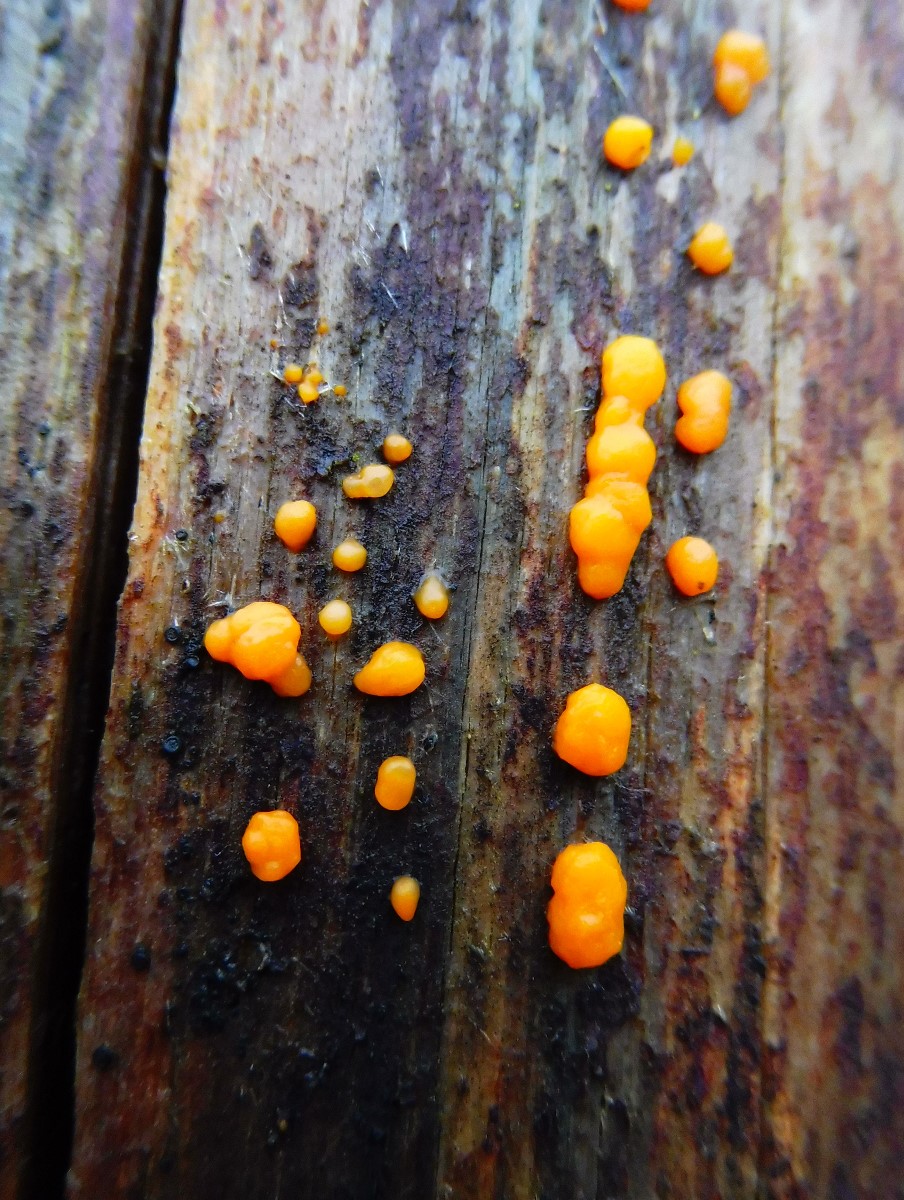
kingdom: Fungi
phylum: Basidiomycota
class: Dacrymycetes
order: Dacrymycetales
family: Dacrymycetaceae
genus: Dacrymyces
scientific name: Dacrymyces stillatus
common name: almindelig tåresvamp
